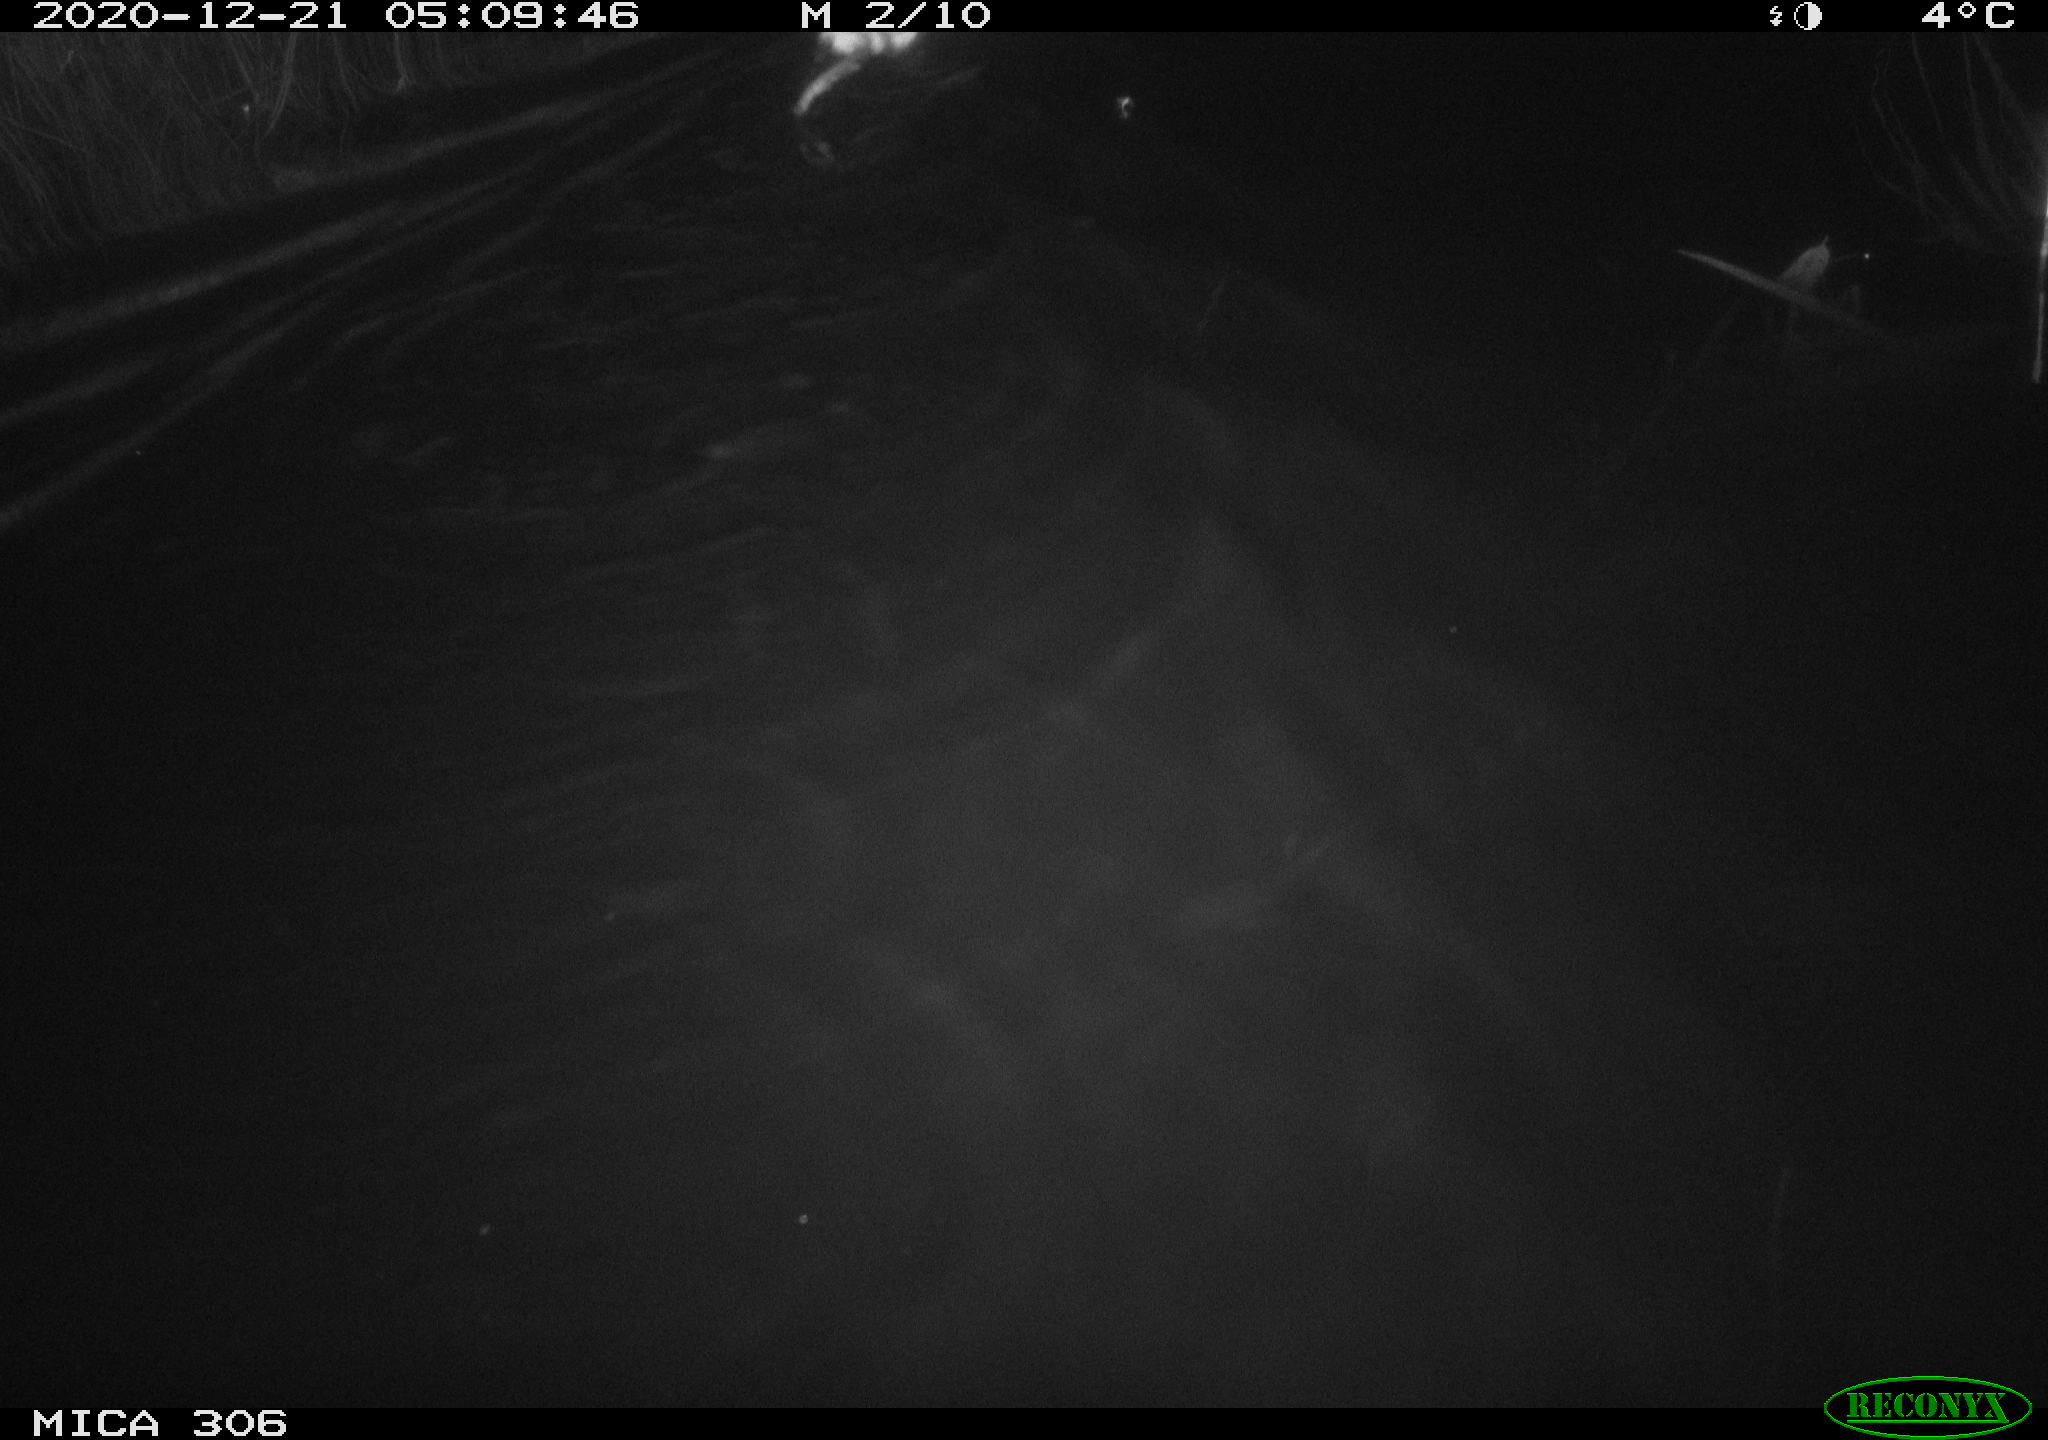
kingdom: Animalia
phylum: Chordata
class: Mammalia
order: Rodentia
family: Cricetidae
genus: Ondatra
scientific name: Ondatra zibethicus
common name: Muskrat
